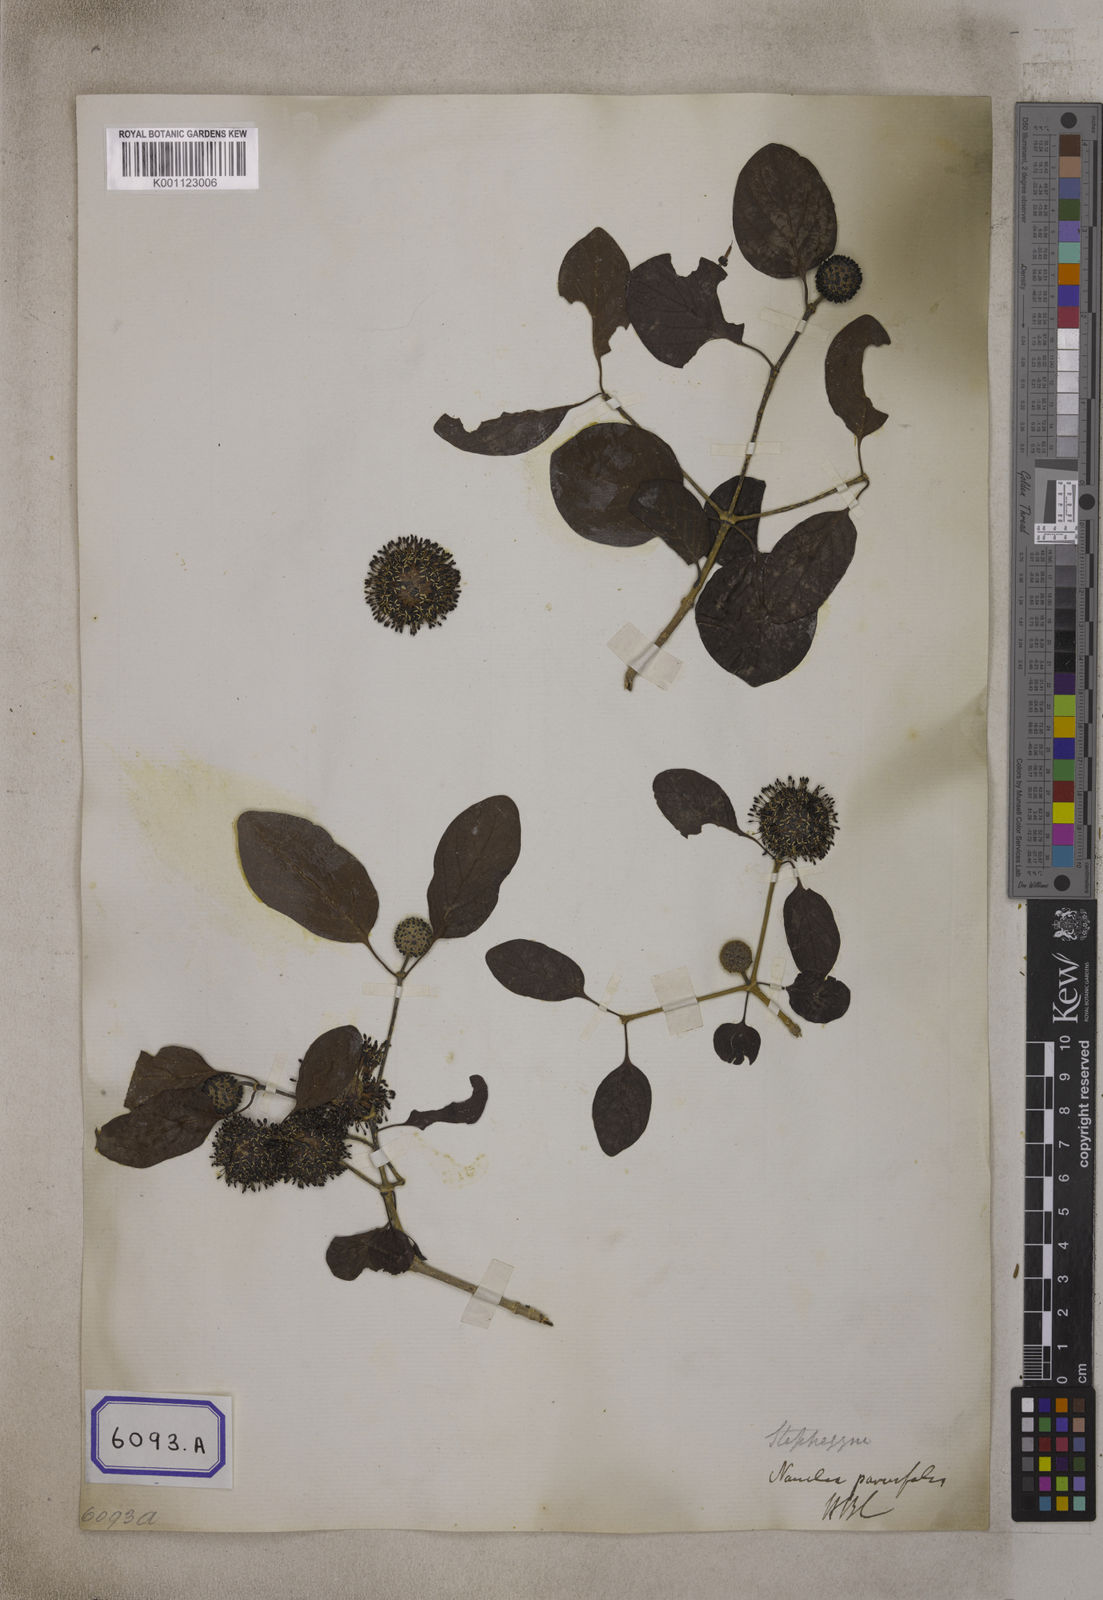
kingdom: Plantae
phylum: Tracheophyta
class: Magnoliopsida
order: Gentianales
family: Rubiaceae
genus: Nauclea
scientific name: Nauclea
